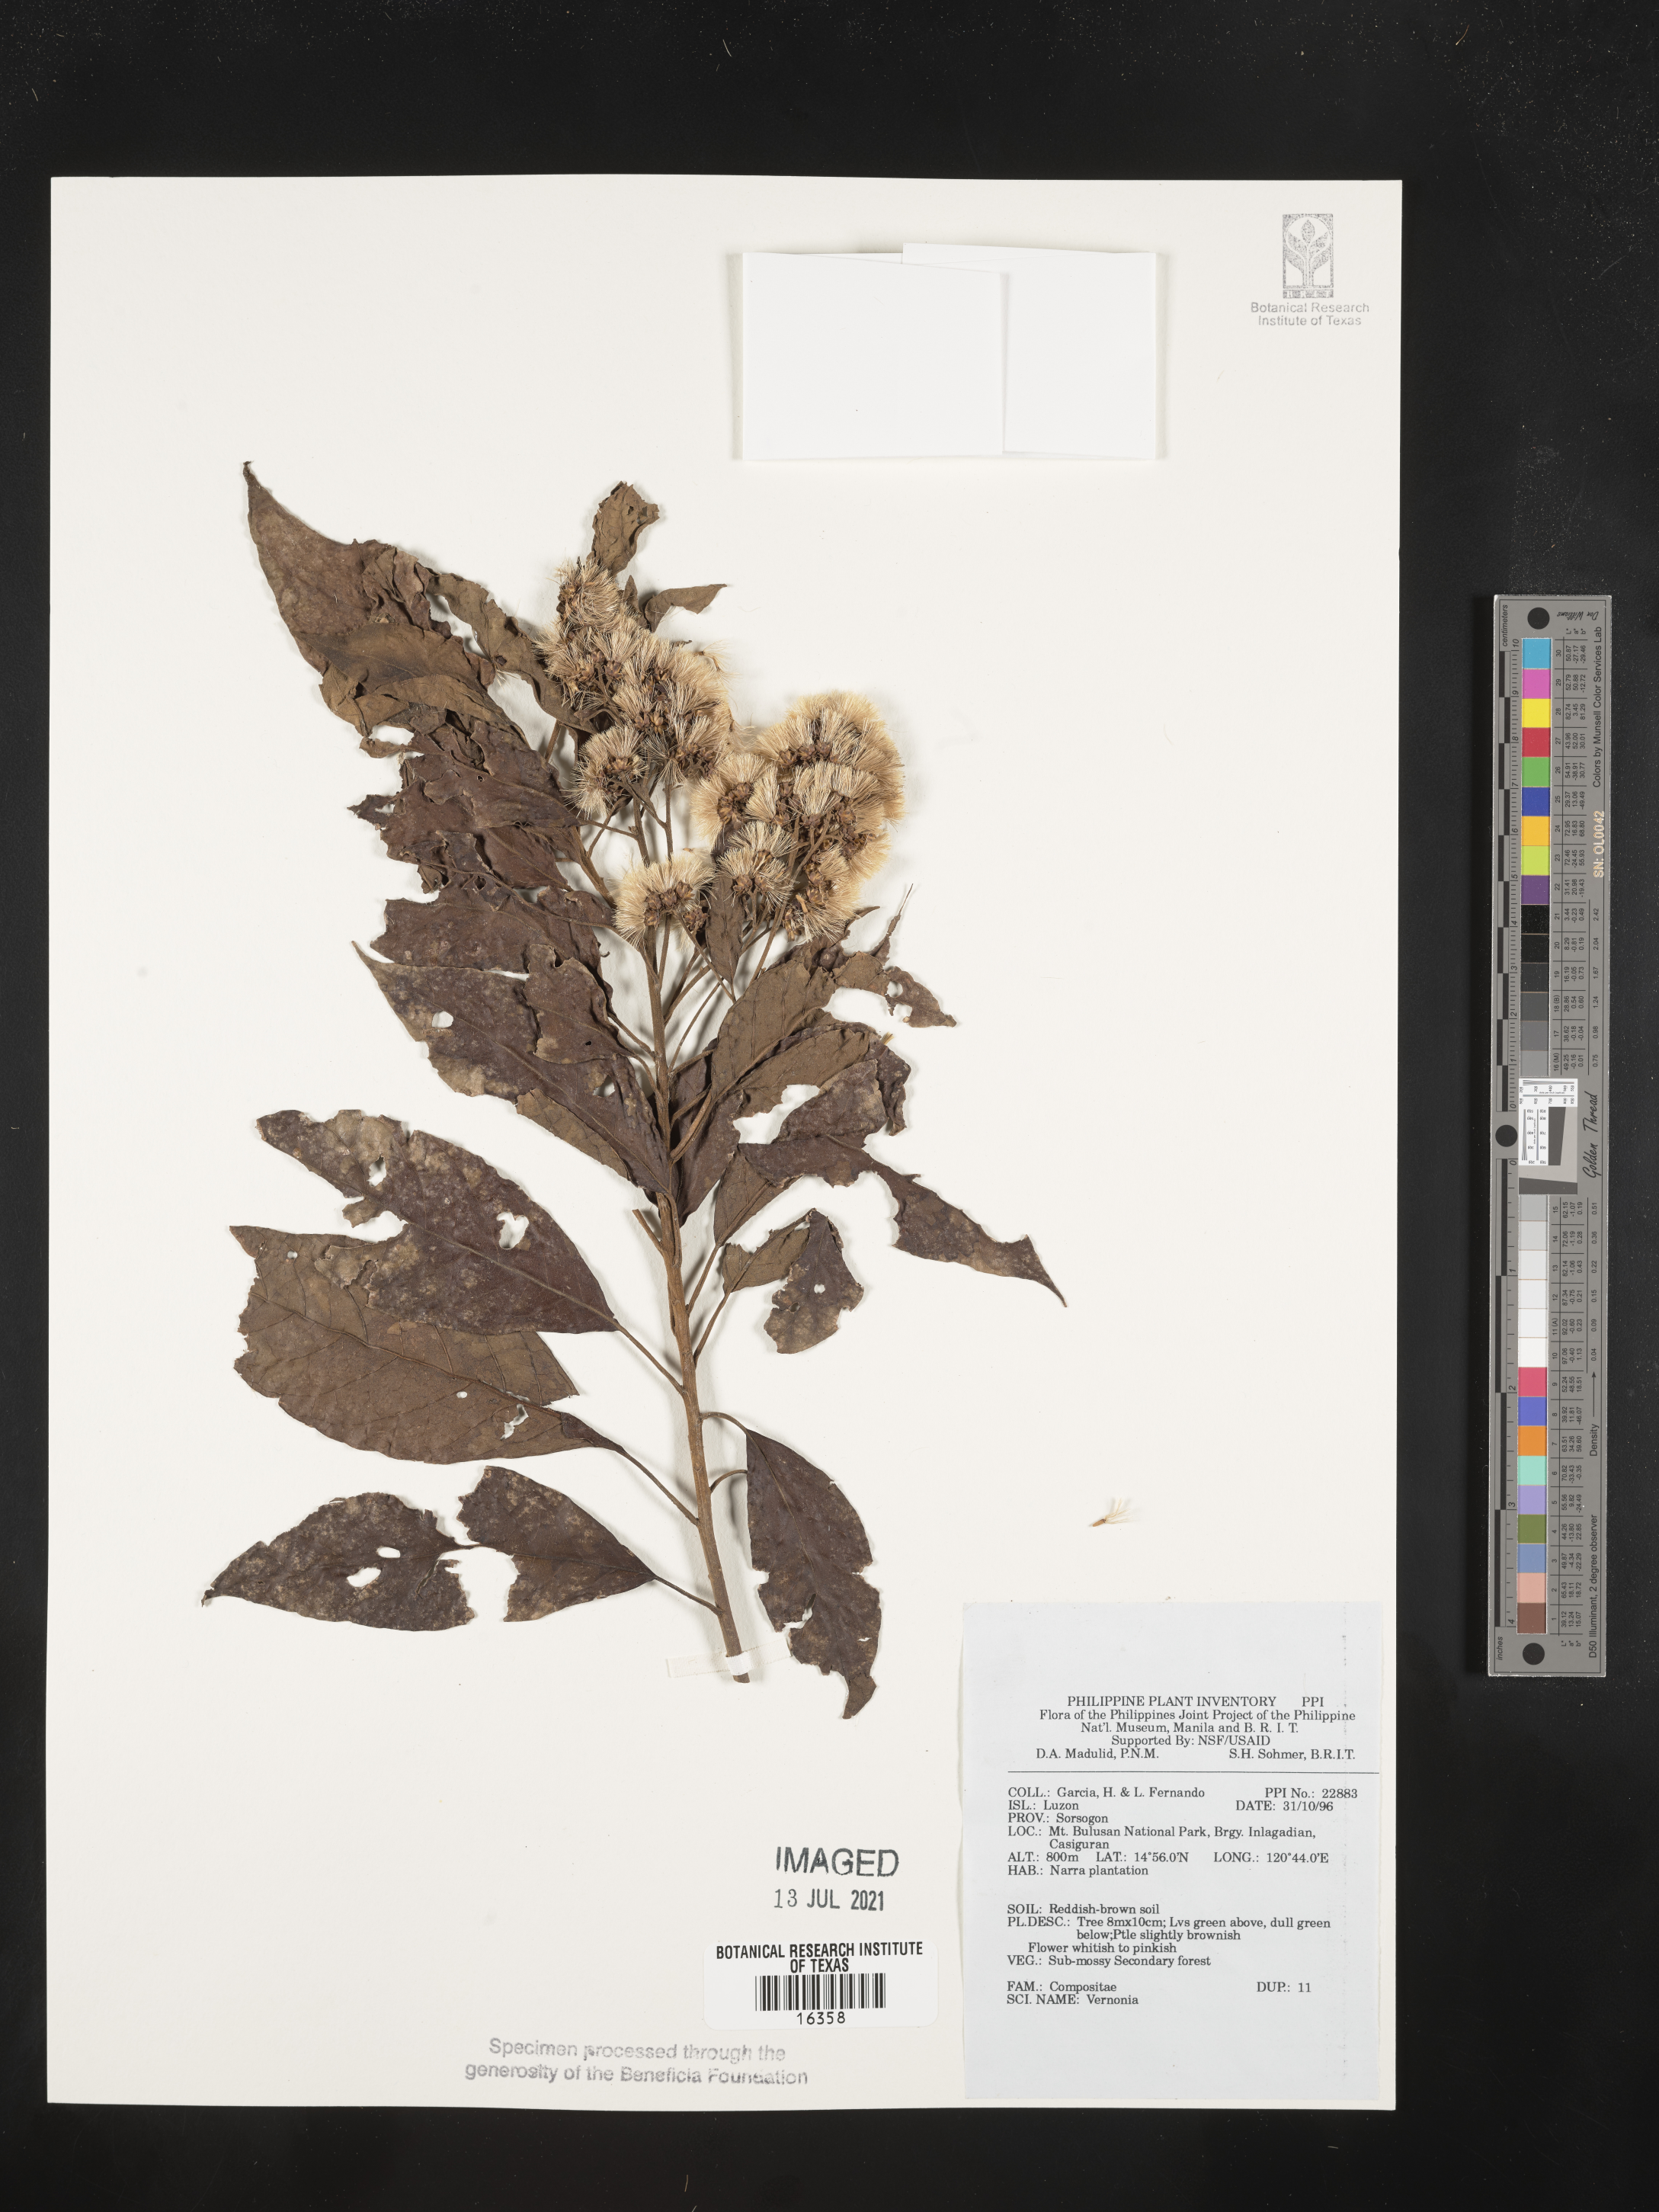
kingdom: Plantae
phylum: Tracheophyta
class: Magnoliopsida
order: Asterales
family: Asteraceae
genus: Vernonia
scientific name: Vernonia
